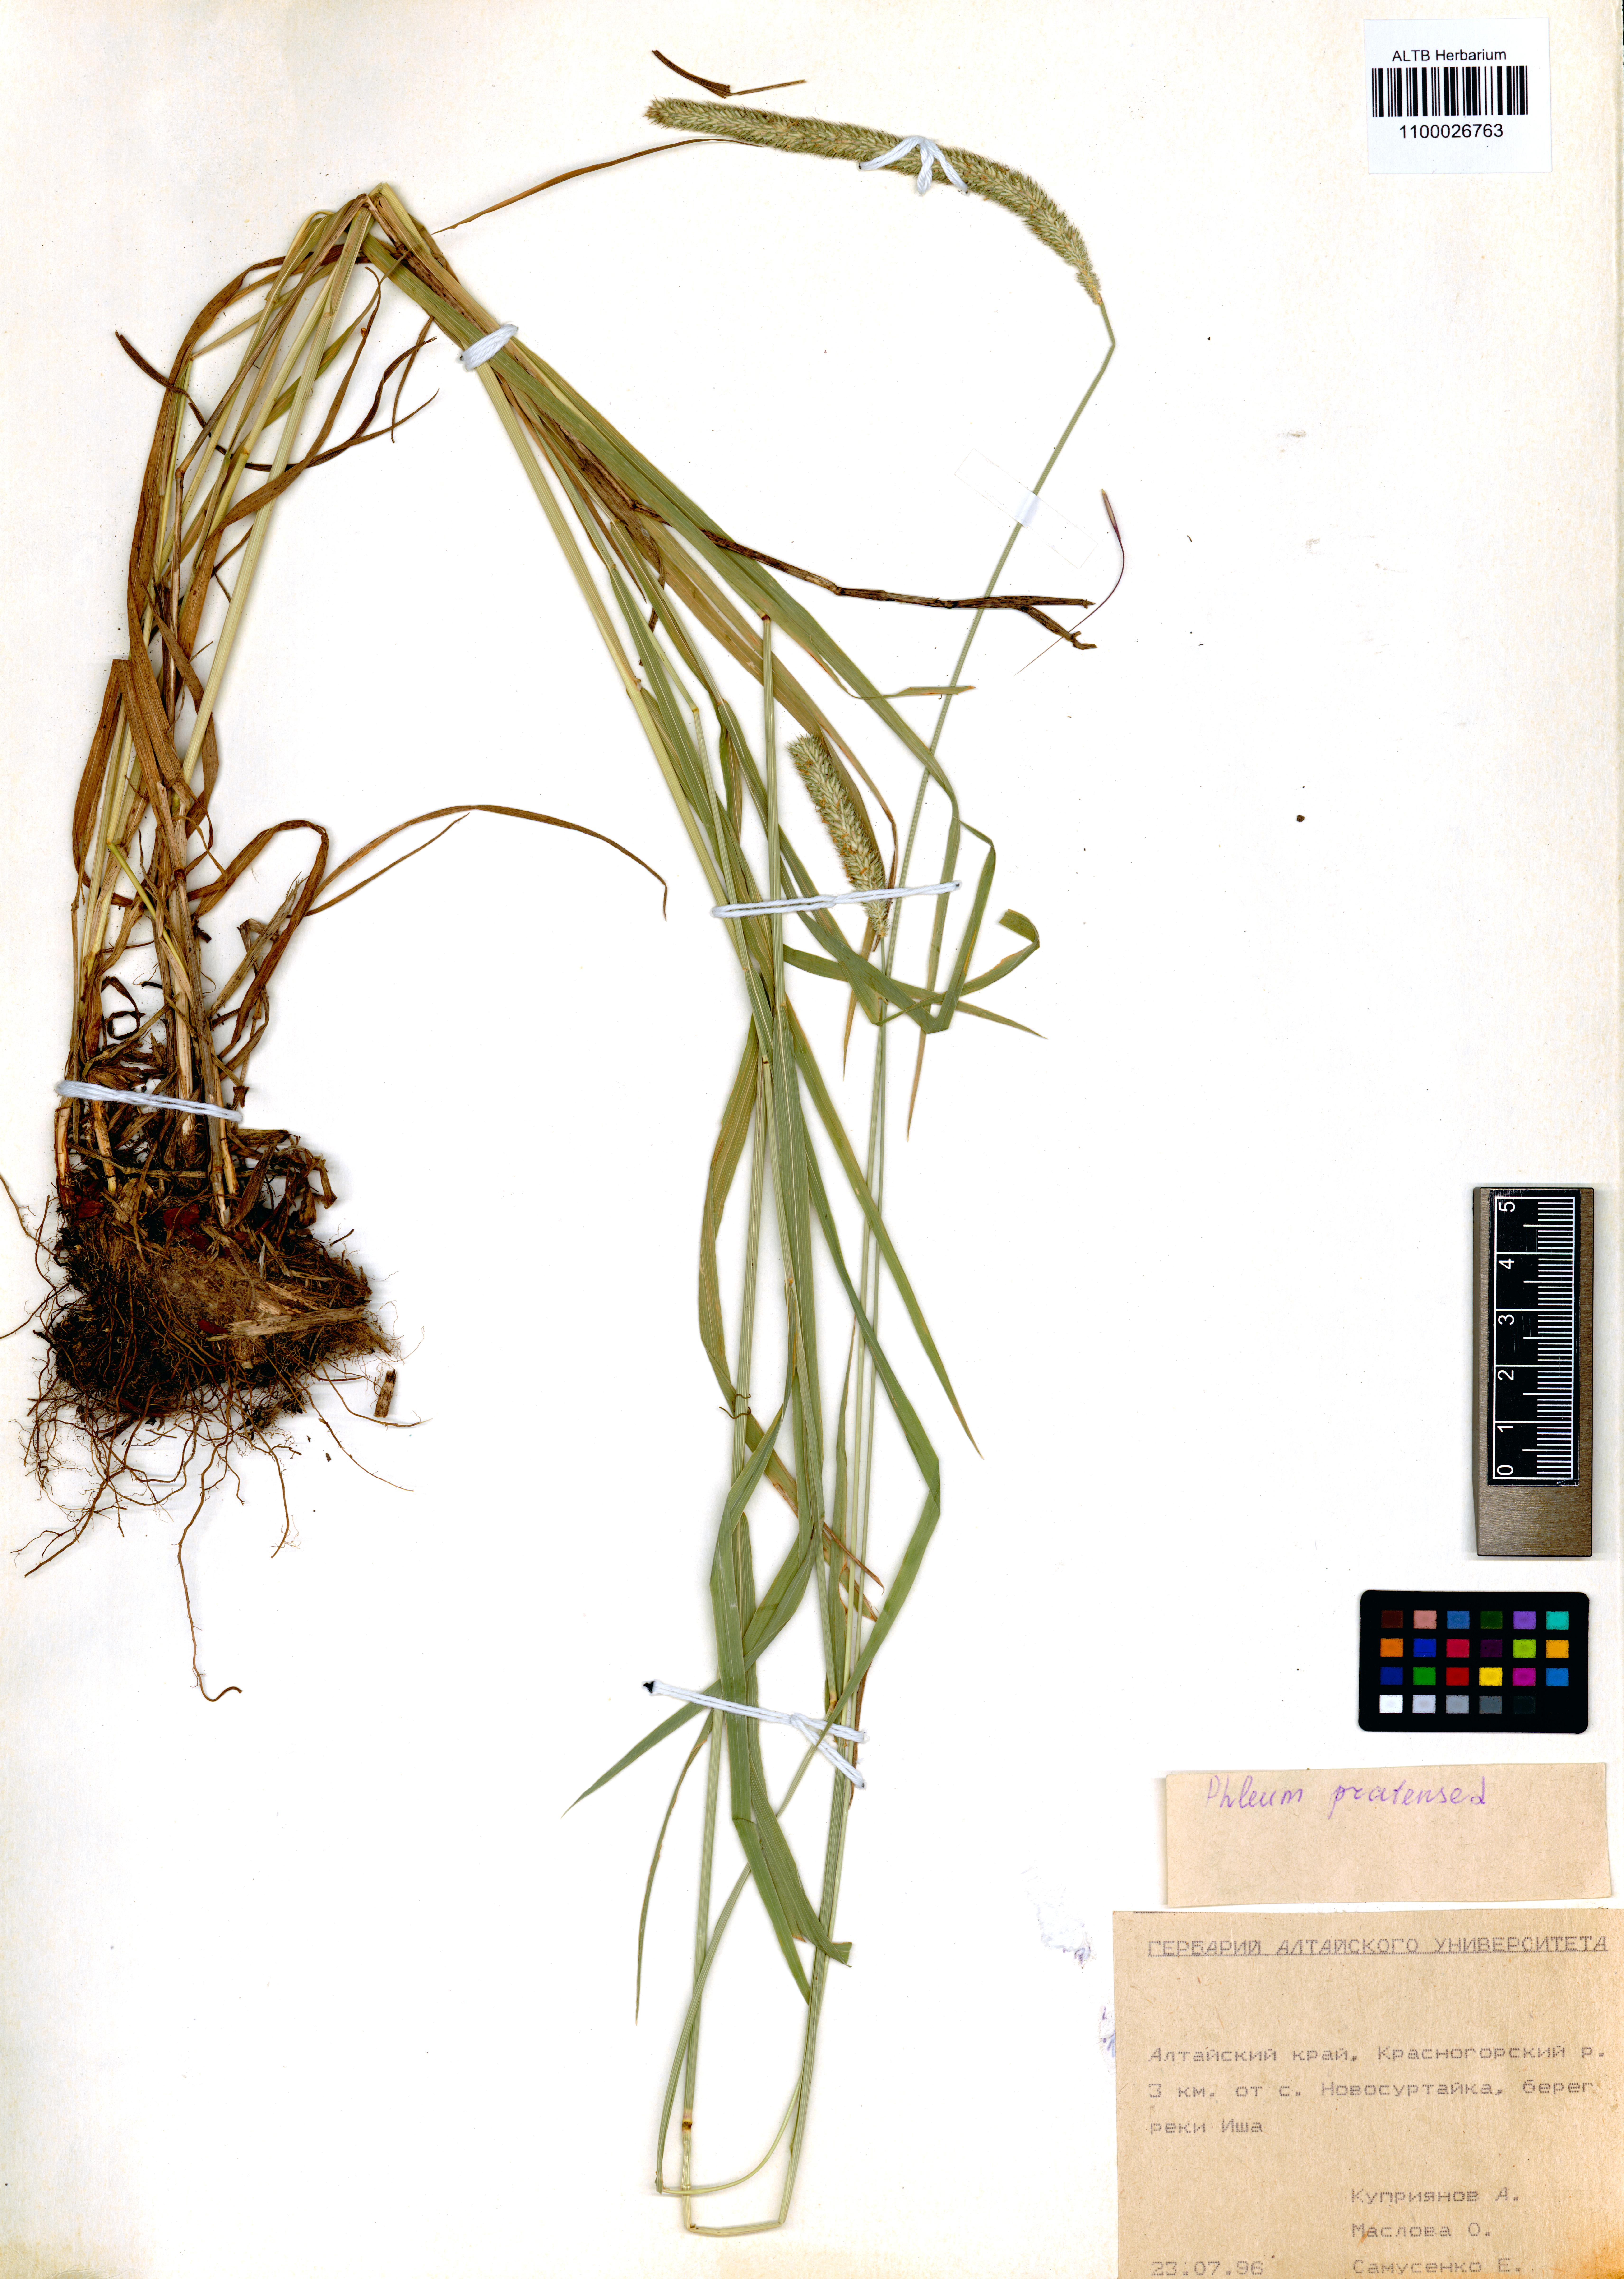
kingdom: Plantae
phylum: Tracheophyta
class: Liliopsida
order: Poales
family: Poaceae
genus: Phleum
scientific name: Phleum pratense
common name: Timothy grass
